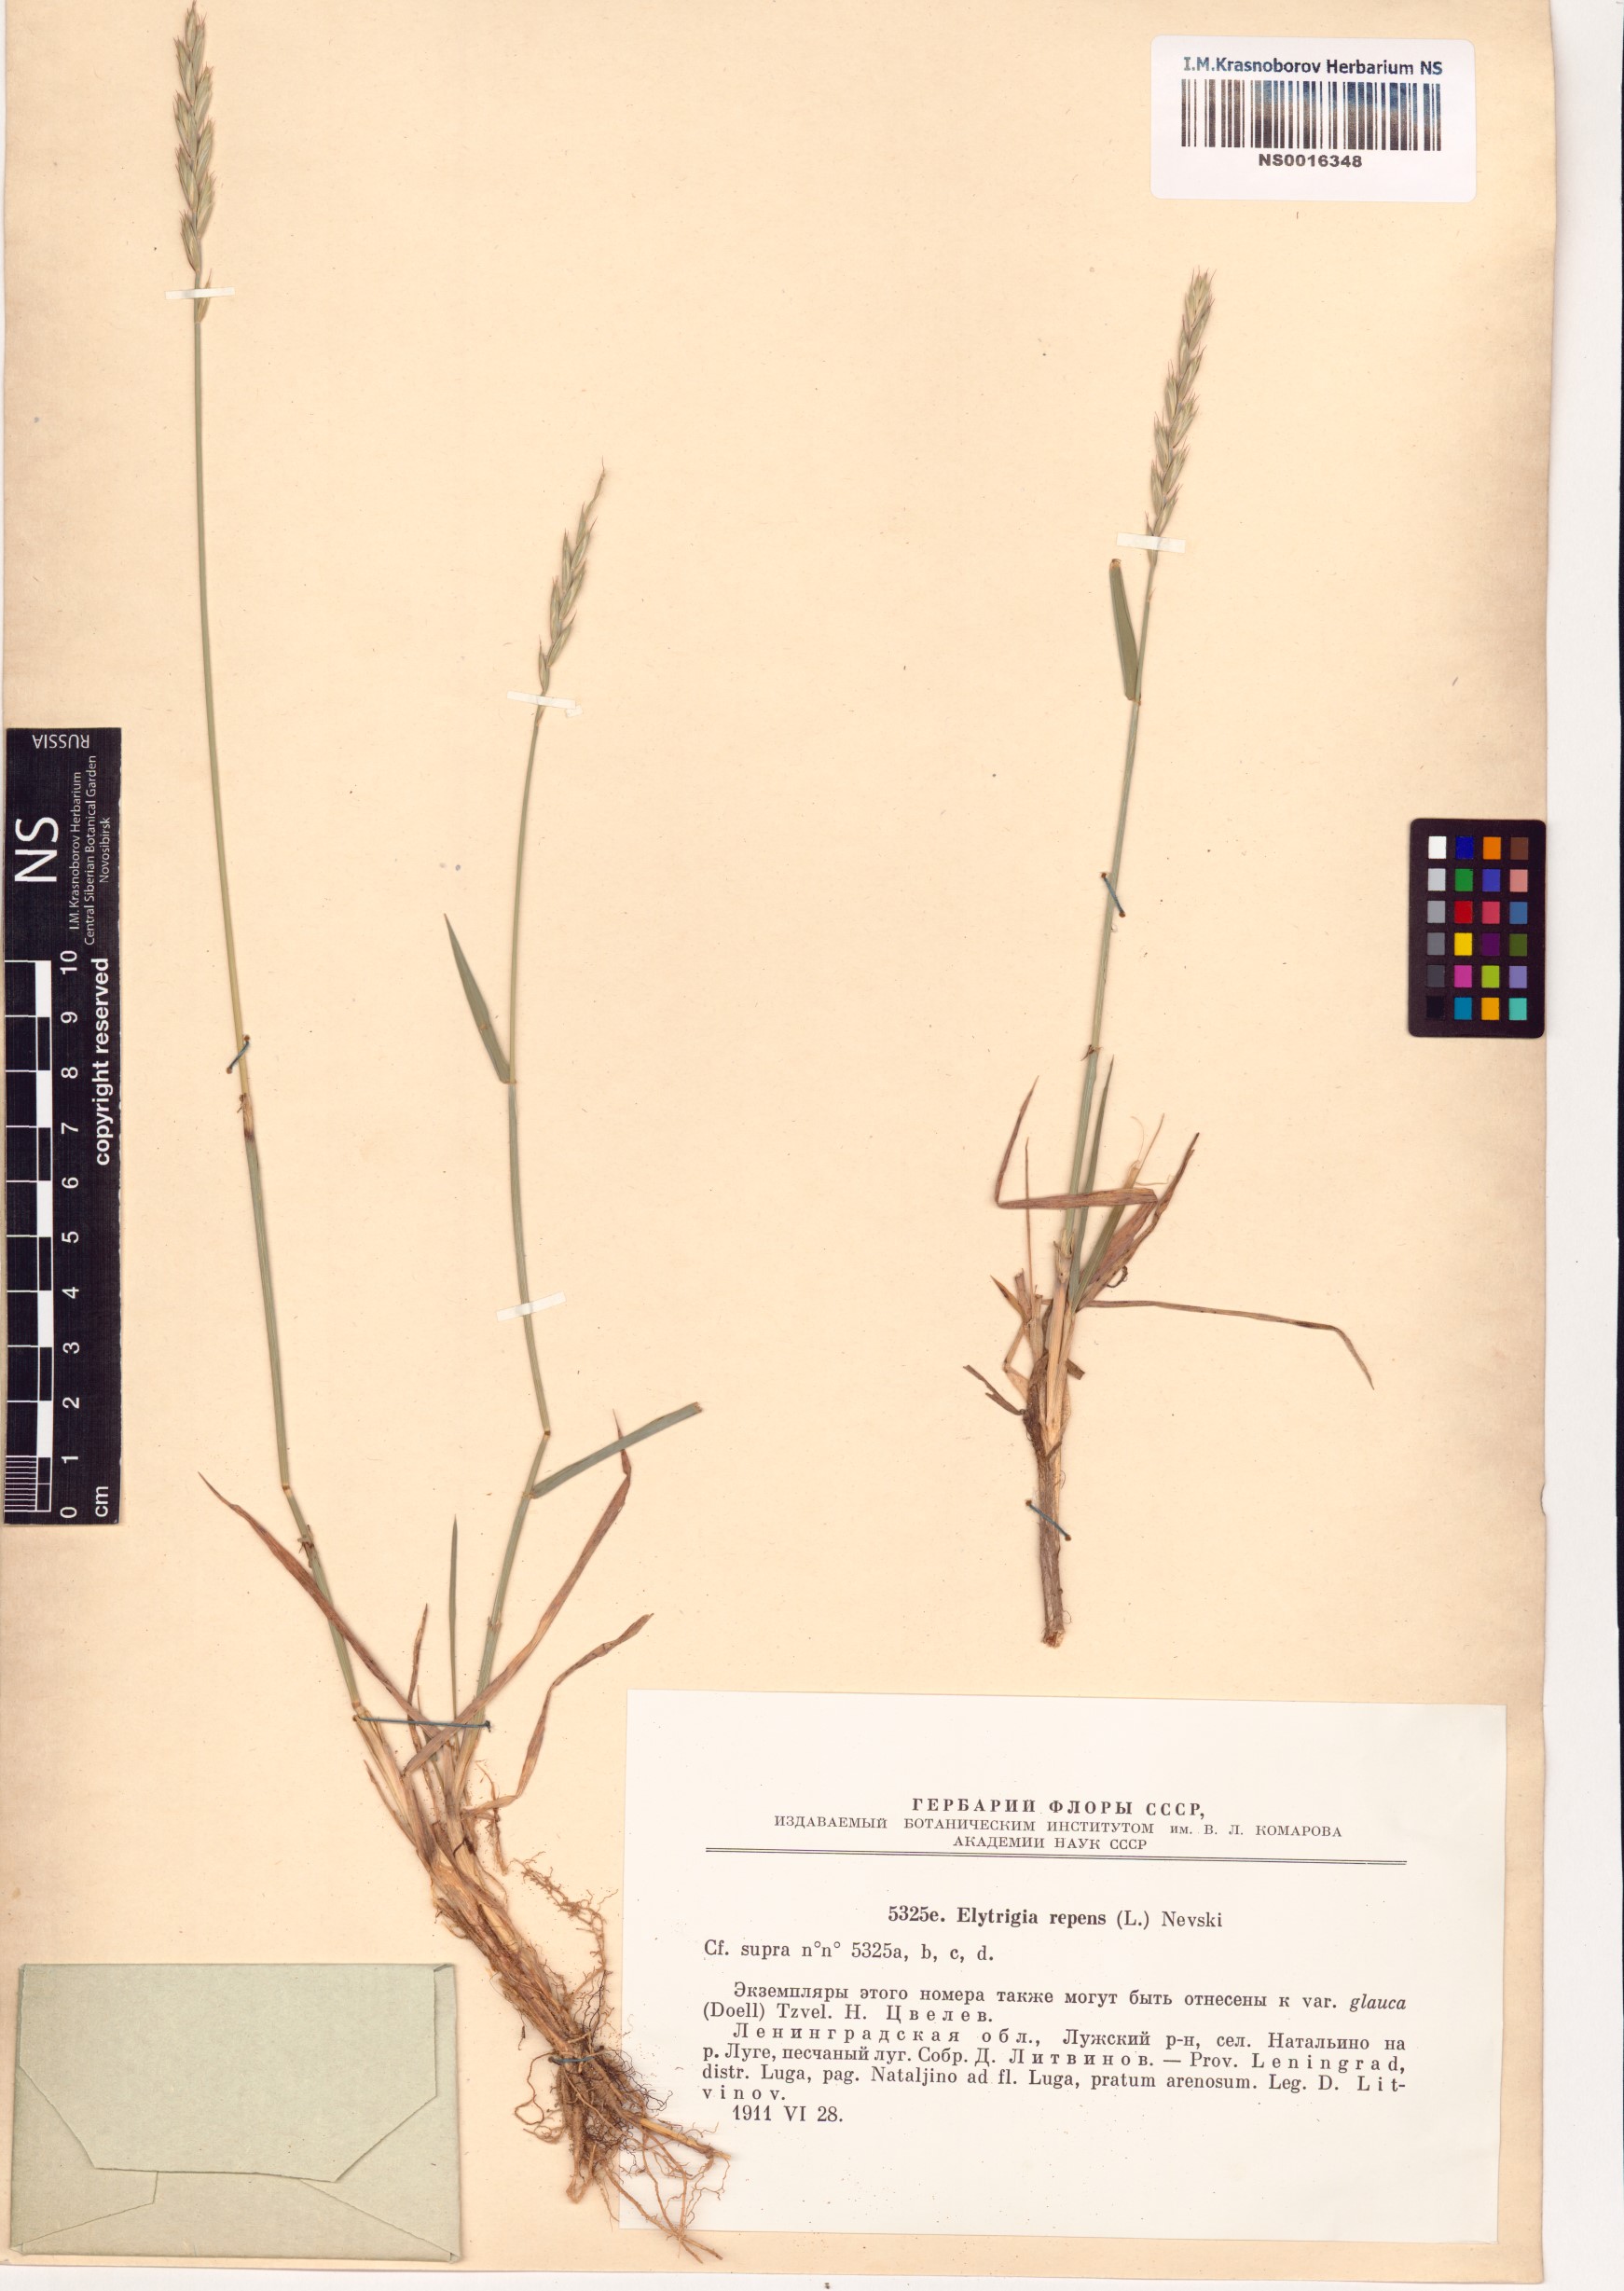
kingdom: Plantae
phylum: Tracheophyta
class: Liliopsida
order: Poales
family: Poaceae
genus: Elymus
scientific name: Elymus repens
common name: Quackgrass
